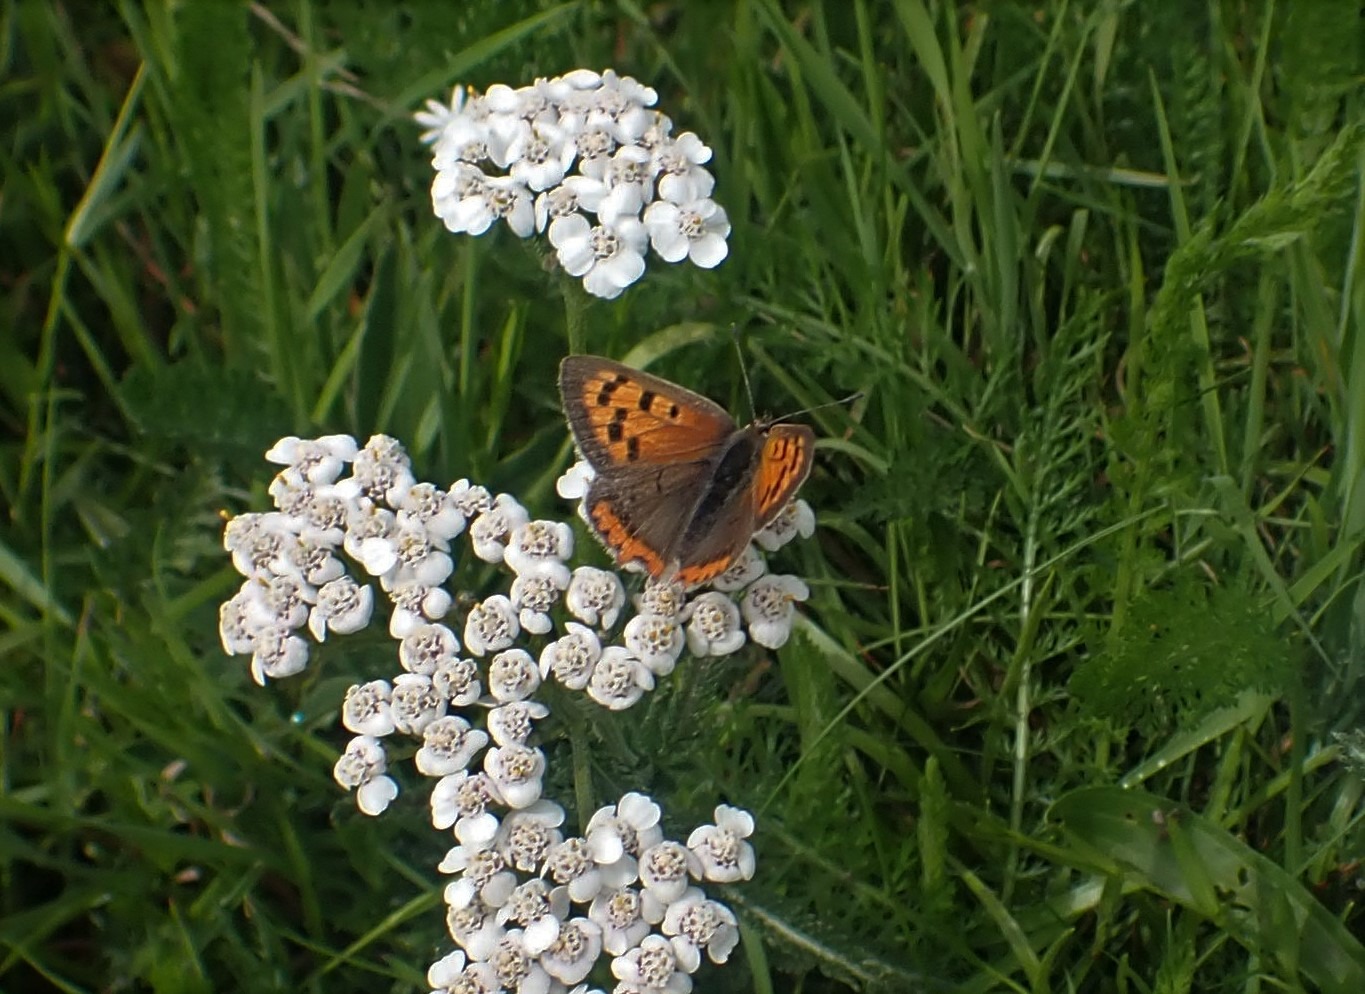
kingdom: Animalia
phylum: Arthropoda
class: Insecta
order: Lepidoptera
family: Lycaenidae
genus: Lycaena
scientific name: Lycaena phlaeas
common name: Lille ildfugl
